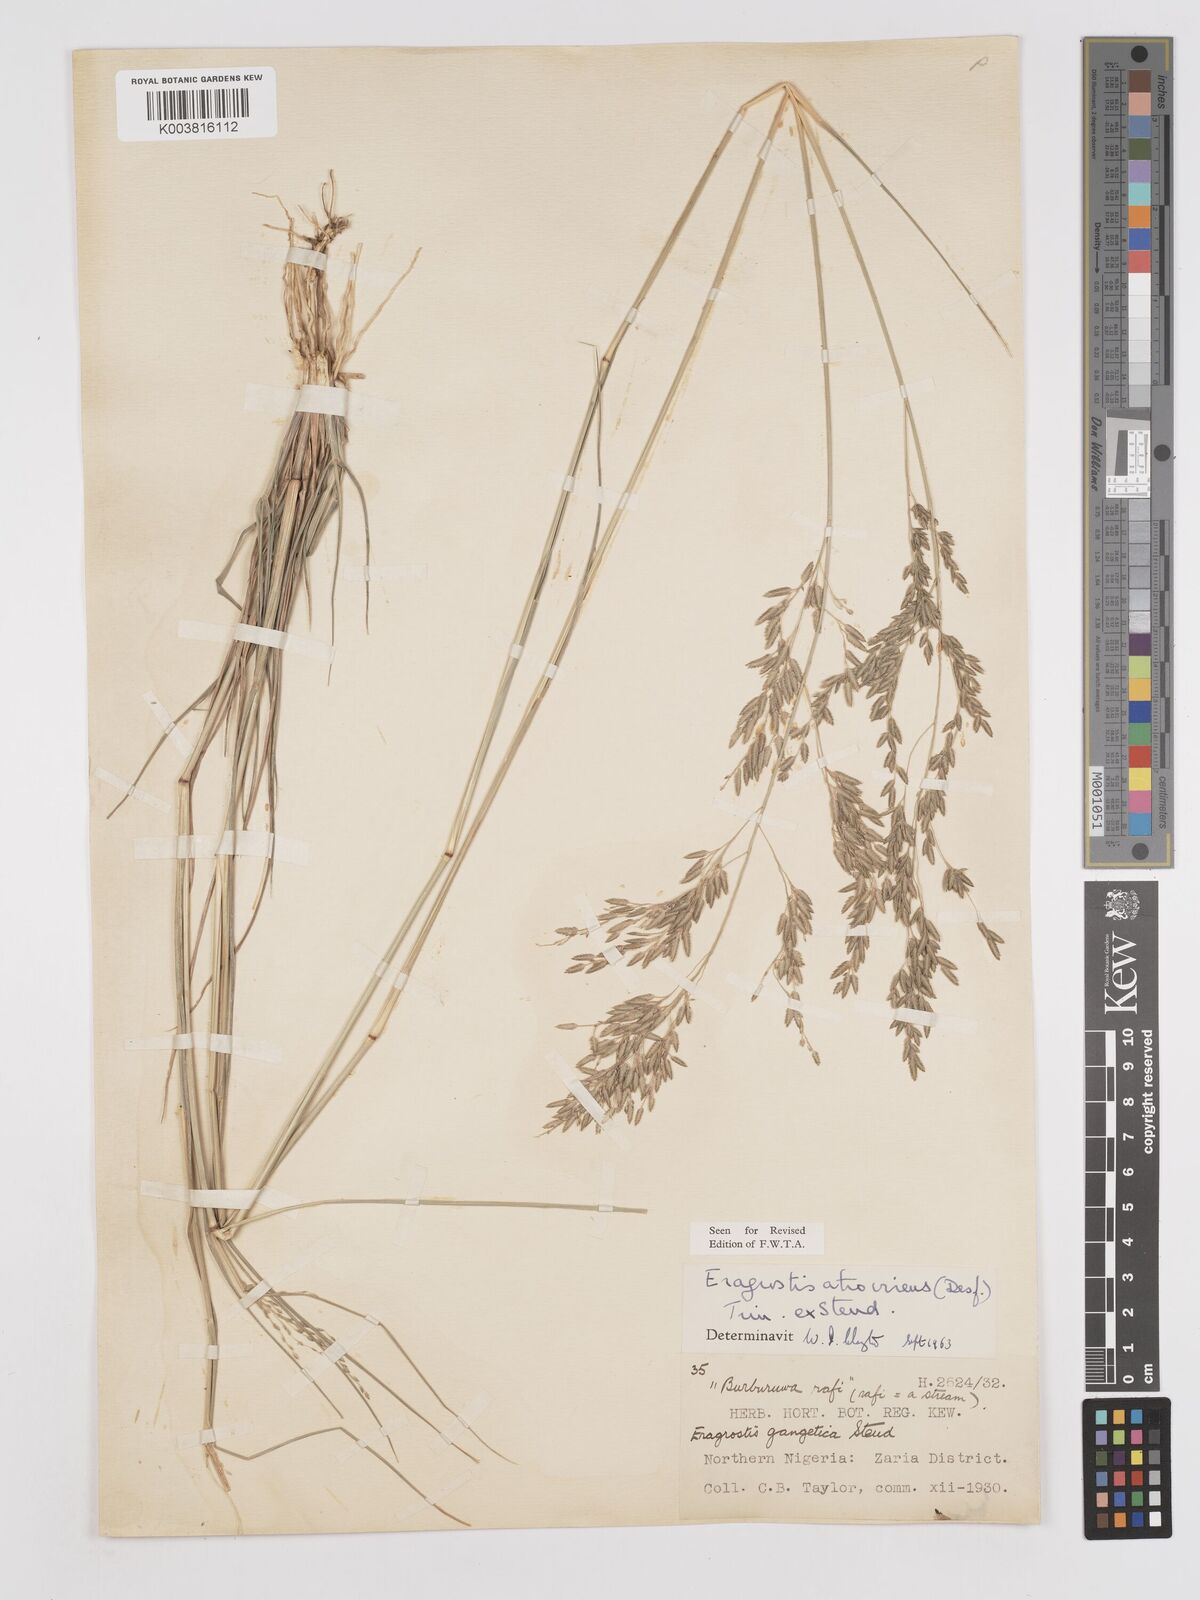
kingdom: Plantae
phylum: Tracheophyta
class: Liliopsida
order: Poales
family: Poaceae
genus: Eragrostis
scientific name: Eragrostis atrovirens
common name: Thalia lovegrass
